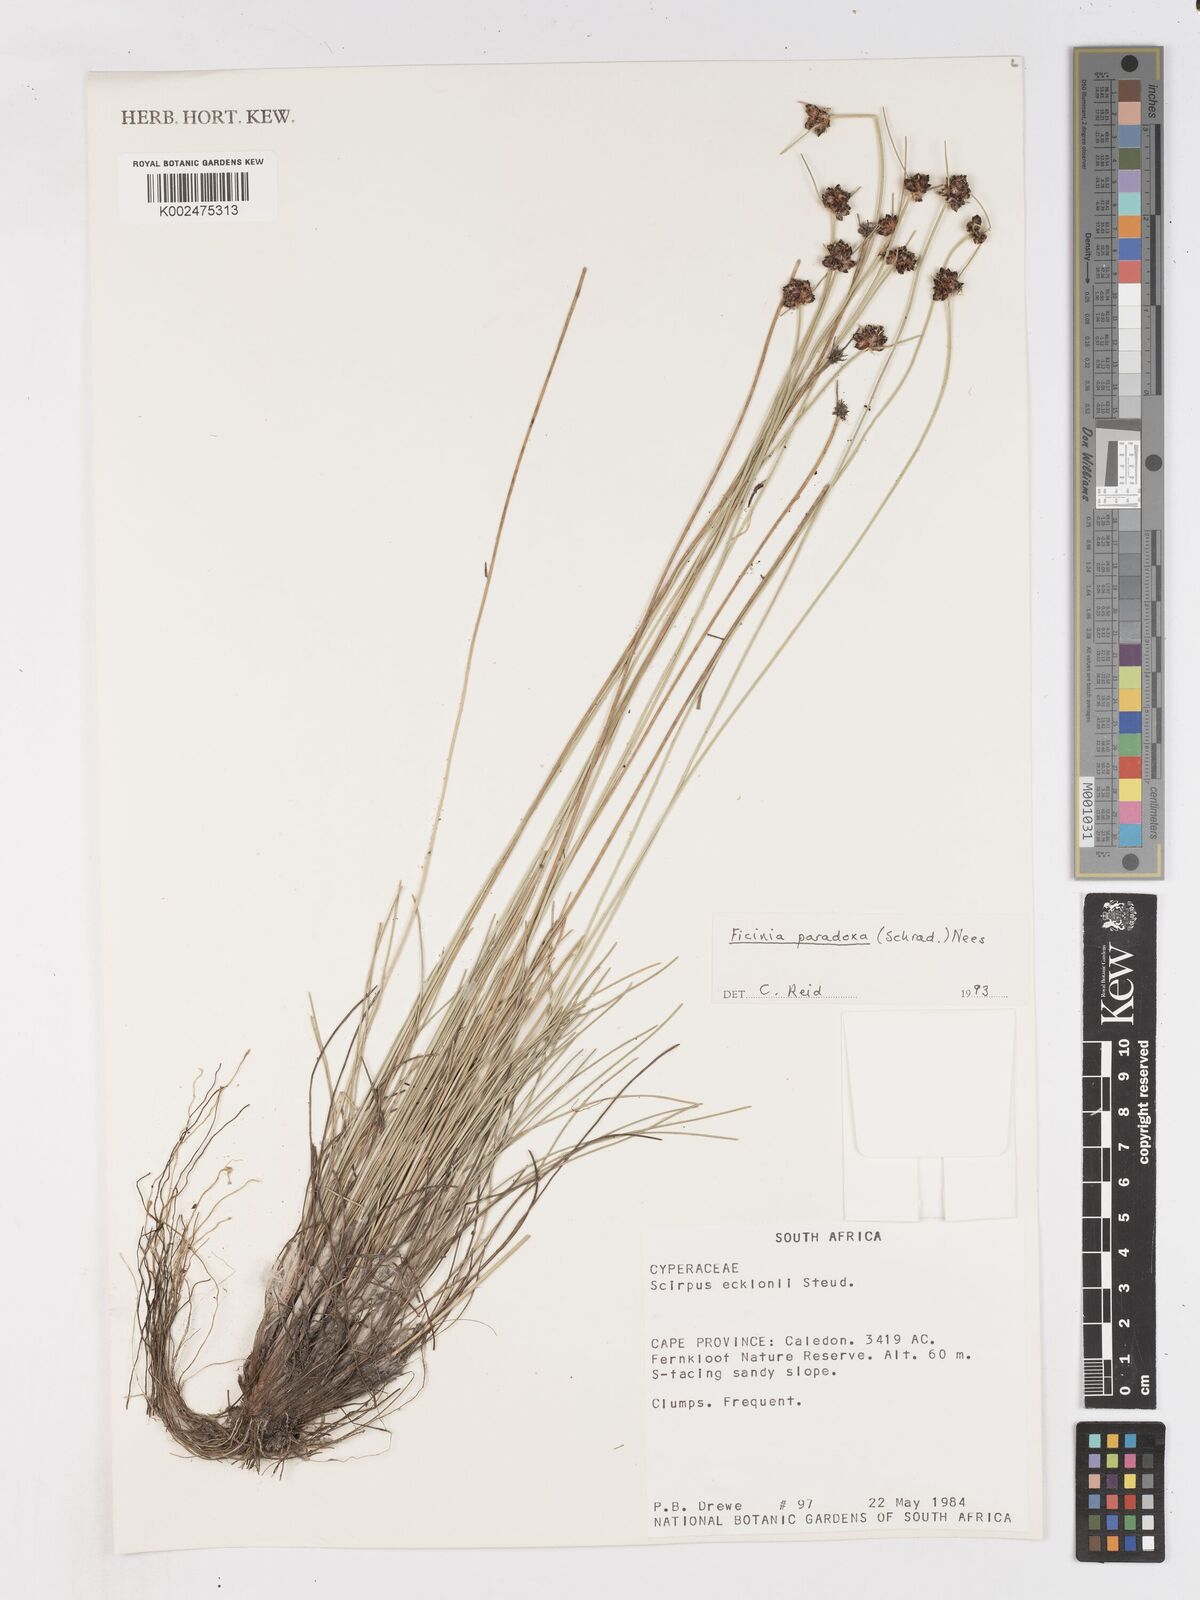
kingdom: Plantae
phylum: Tracheophyta
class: Liliopsida
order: Poales
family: Cyperaceae
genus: Ficinia
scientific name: Ficinia paradoxa
